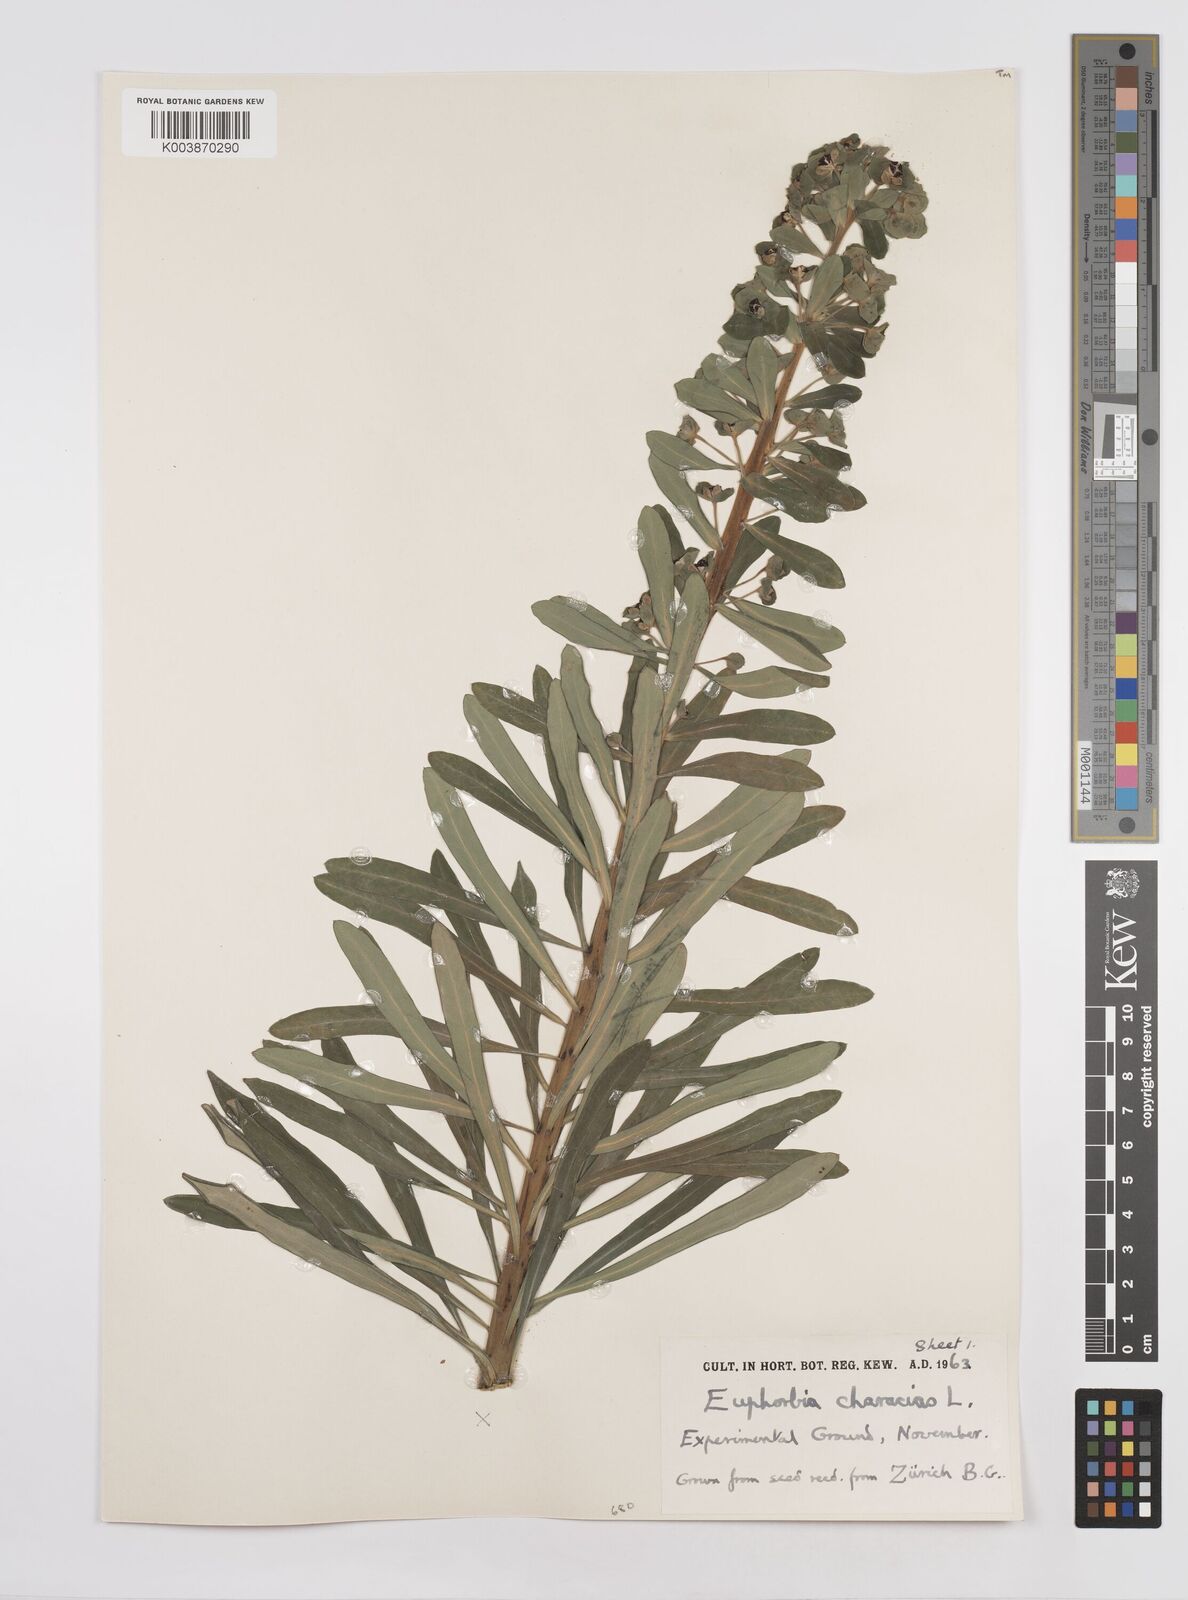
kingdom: Plantae
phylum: Tracheophyta
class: Magnoliopsida
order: Malpighiales
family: Euphorbiaceae
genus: Euphorbia
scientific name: Euphorbia characias
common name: Mediterranean spurge
